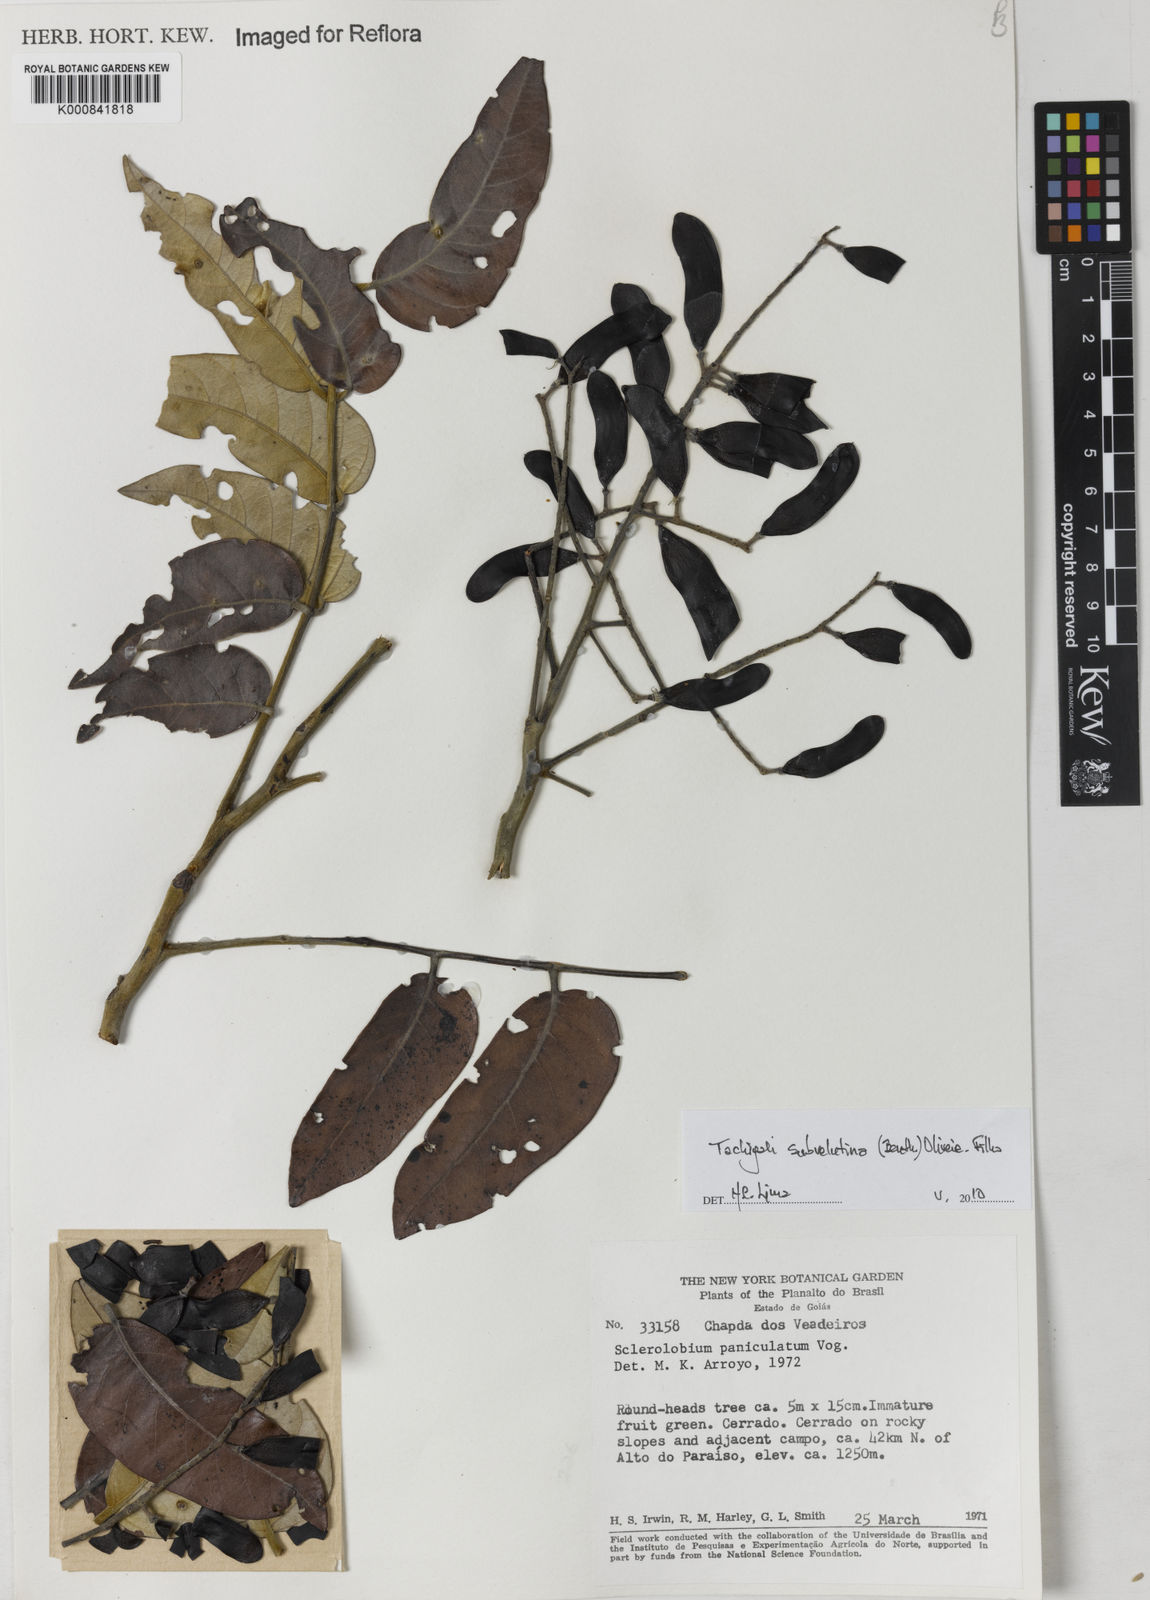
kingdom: Plantae
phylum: Tracheophyta
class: Magnoliopsida
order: Fabales
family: Fabaceae
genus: Tachigali
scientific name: Tachigali subvelutina
